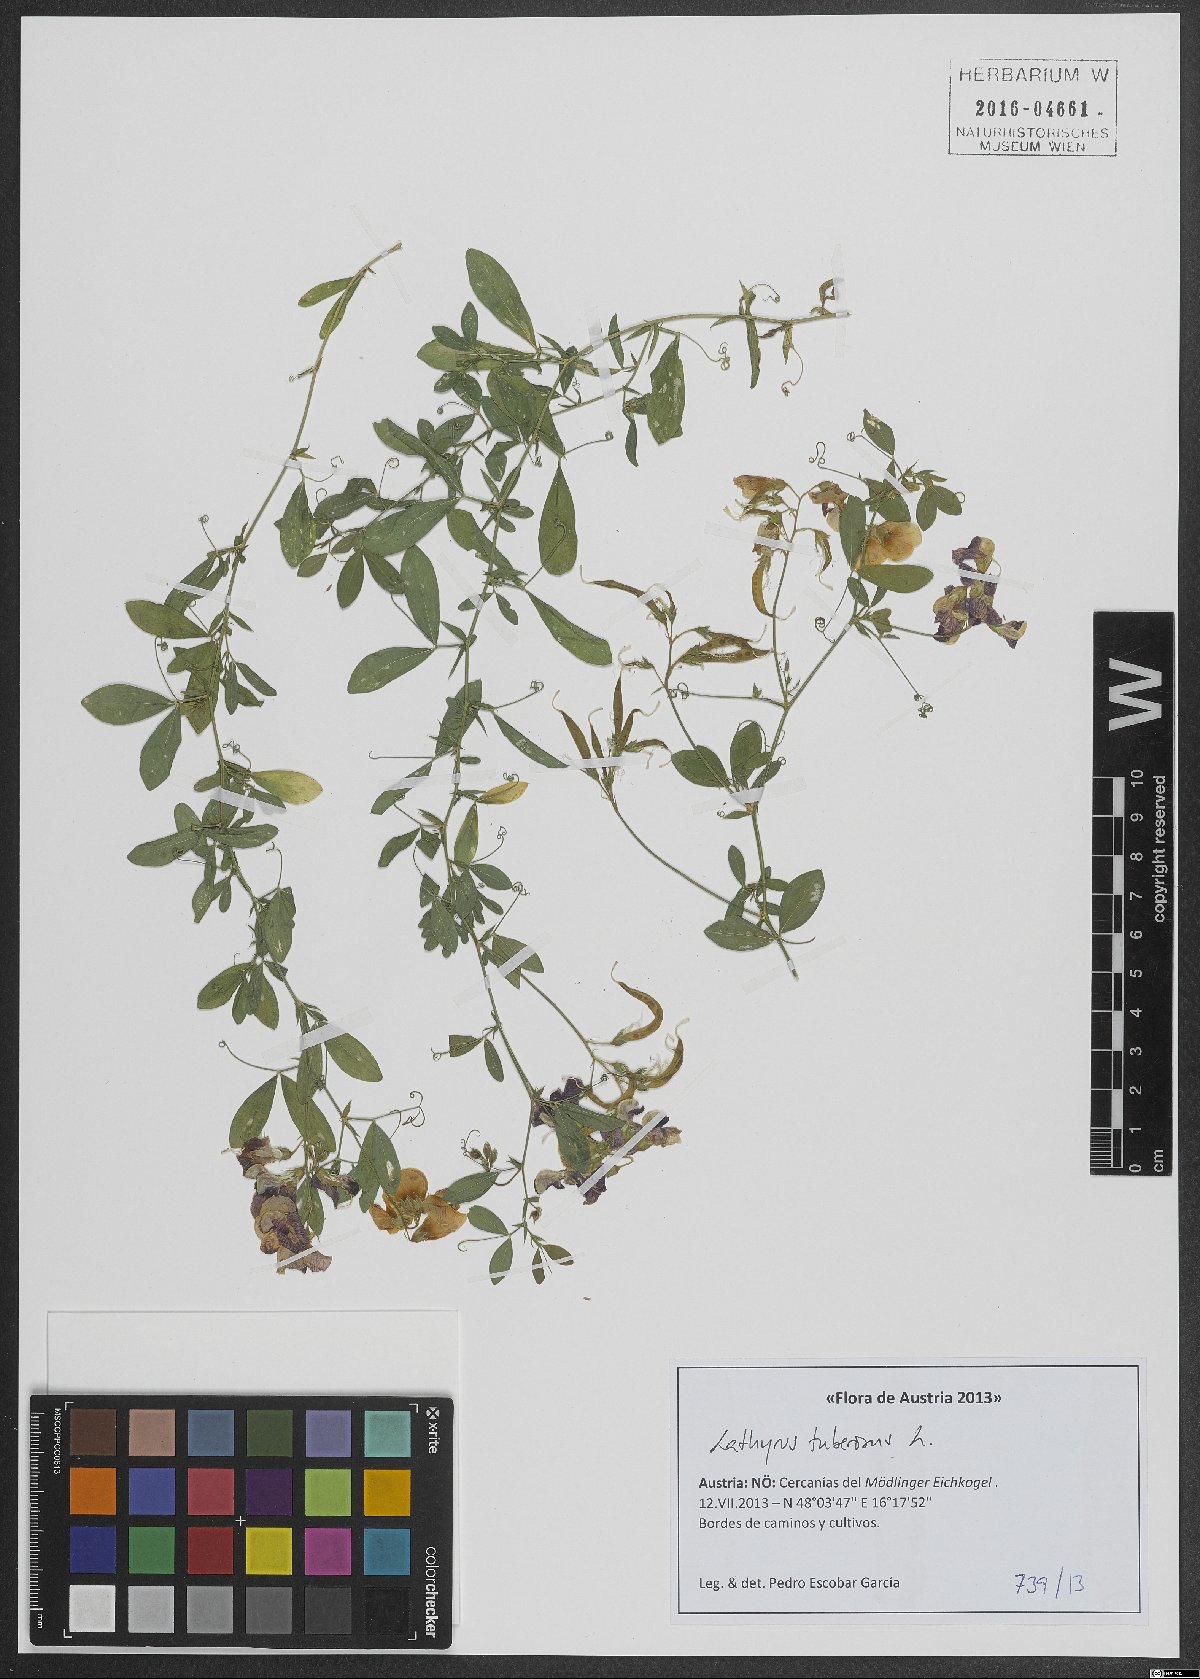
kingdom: Plantae
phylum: Tracheophyta
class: Magnoliopsida
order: Fabales
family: Fabaceae
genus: Lathyrus
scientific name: Lathyrus tuberosus
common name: Tuberous pea
